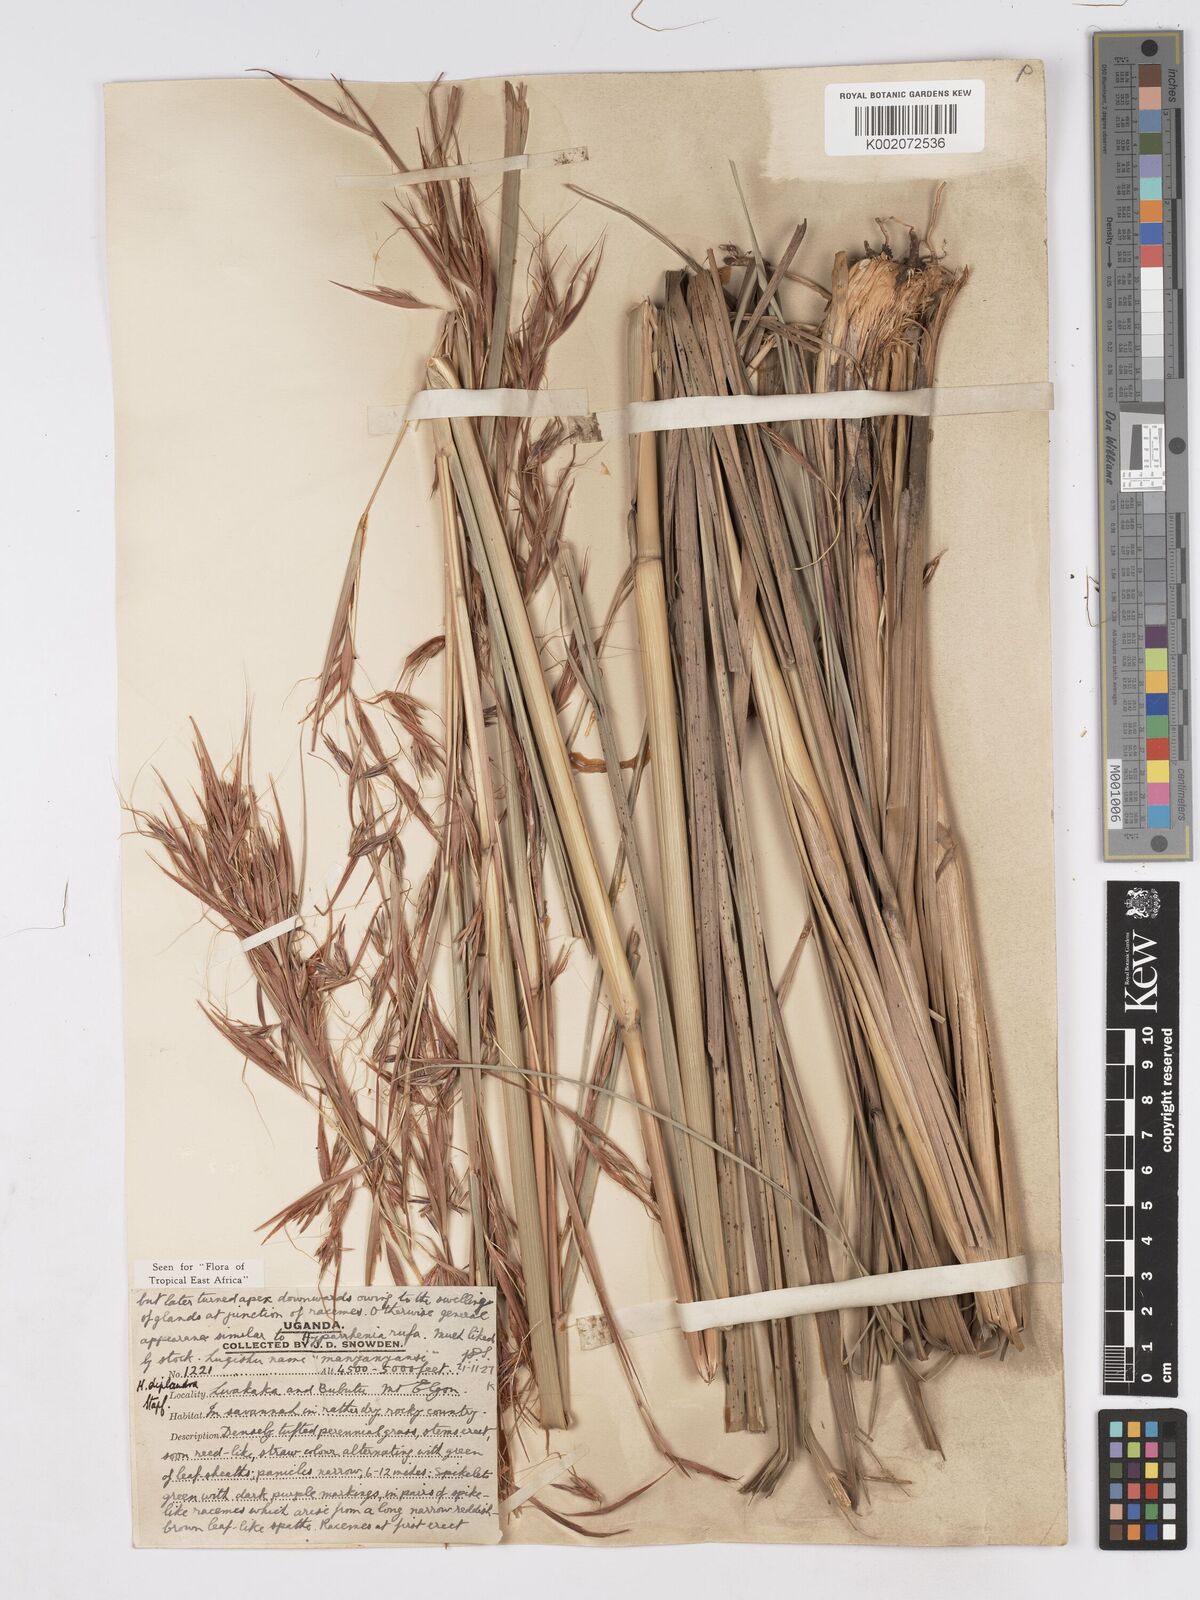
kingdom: Plantae
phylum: Tracheophyta
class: Liliopsida
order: Poales
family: Poaceae
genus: Hyparrhenia
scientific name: Hyparrhenia diplandra
